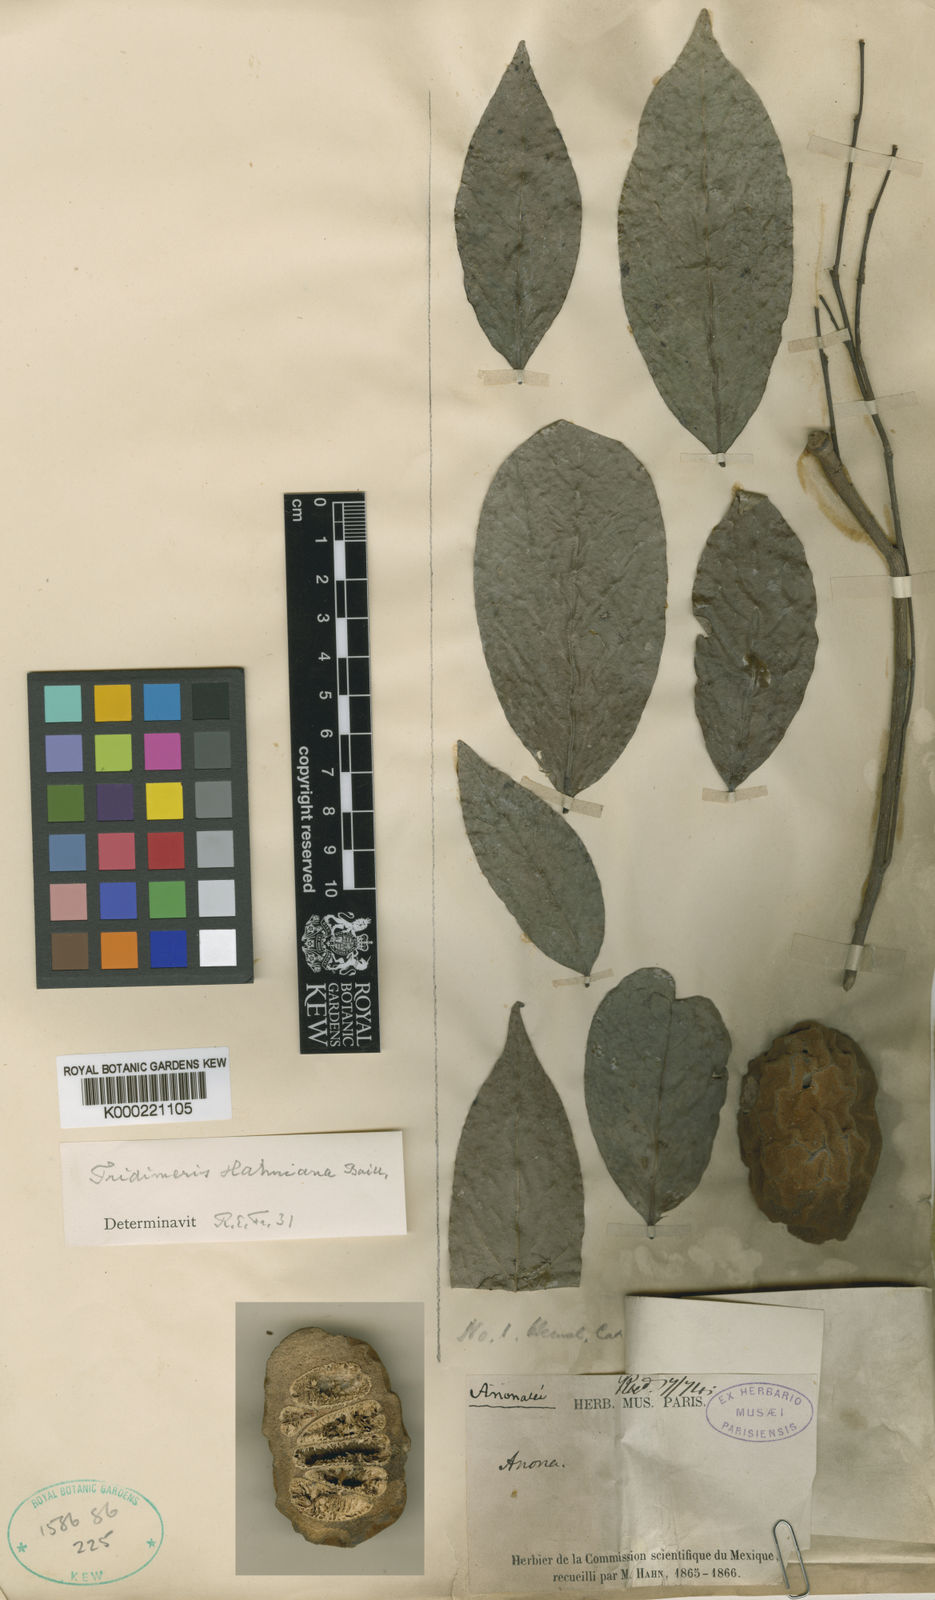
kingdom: Plantae
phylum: Tracheophyta
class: Magnoliopsida
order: Magnoliales
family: Annonaceae
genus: Tridimeris
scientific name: Tridimeris baillonii
